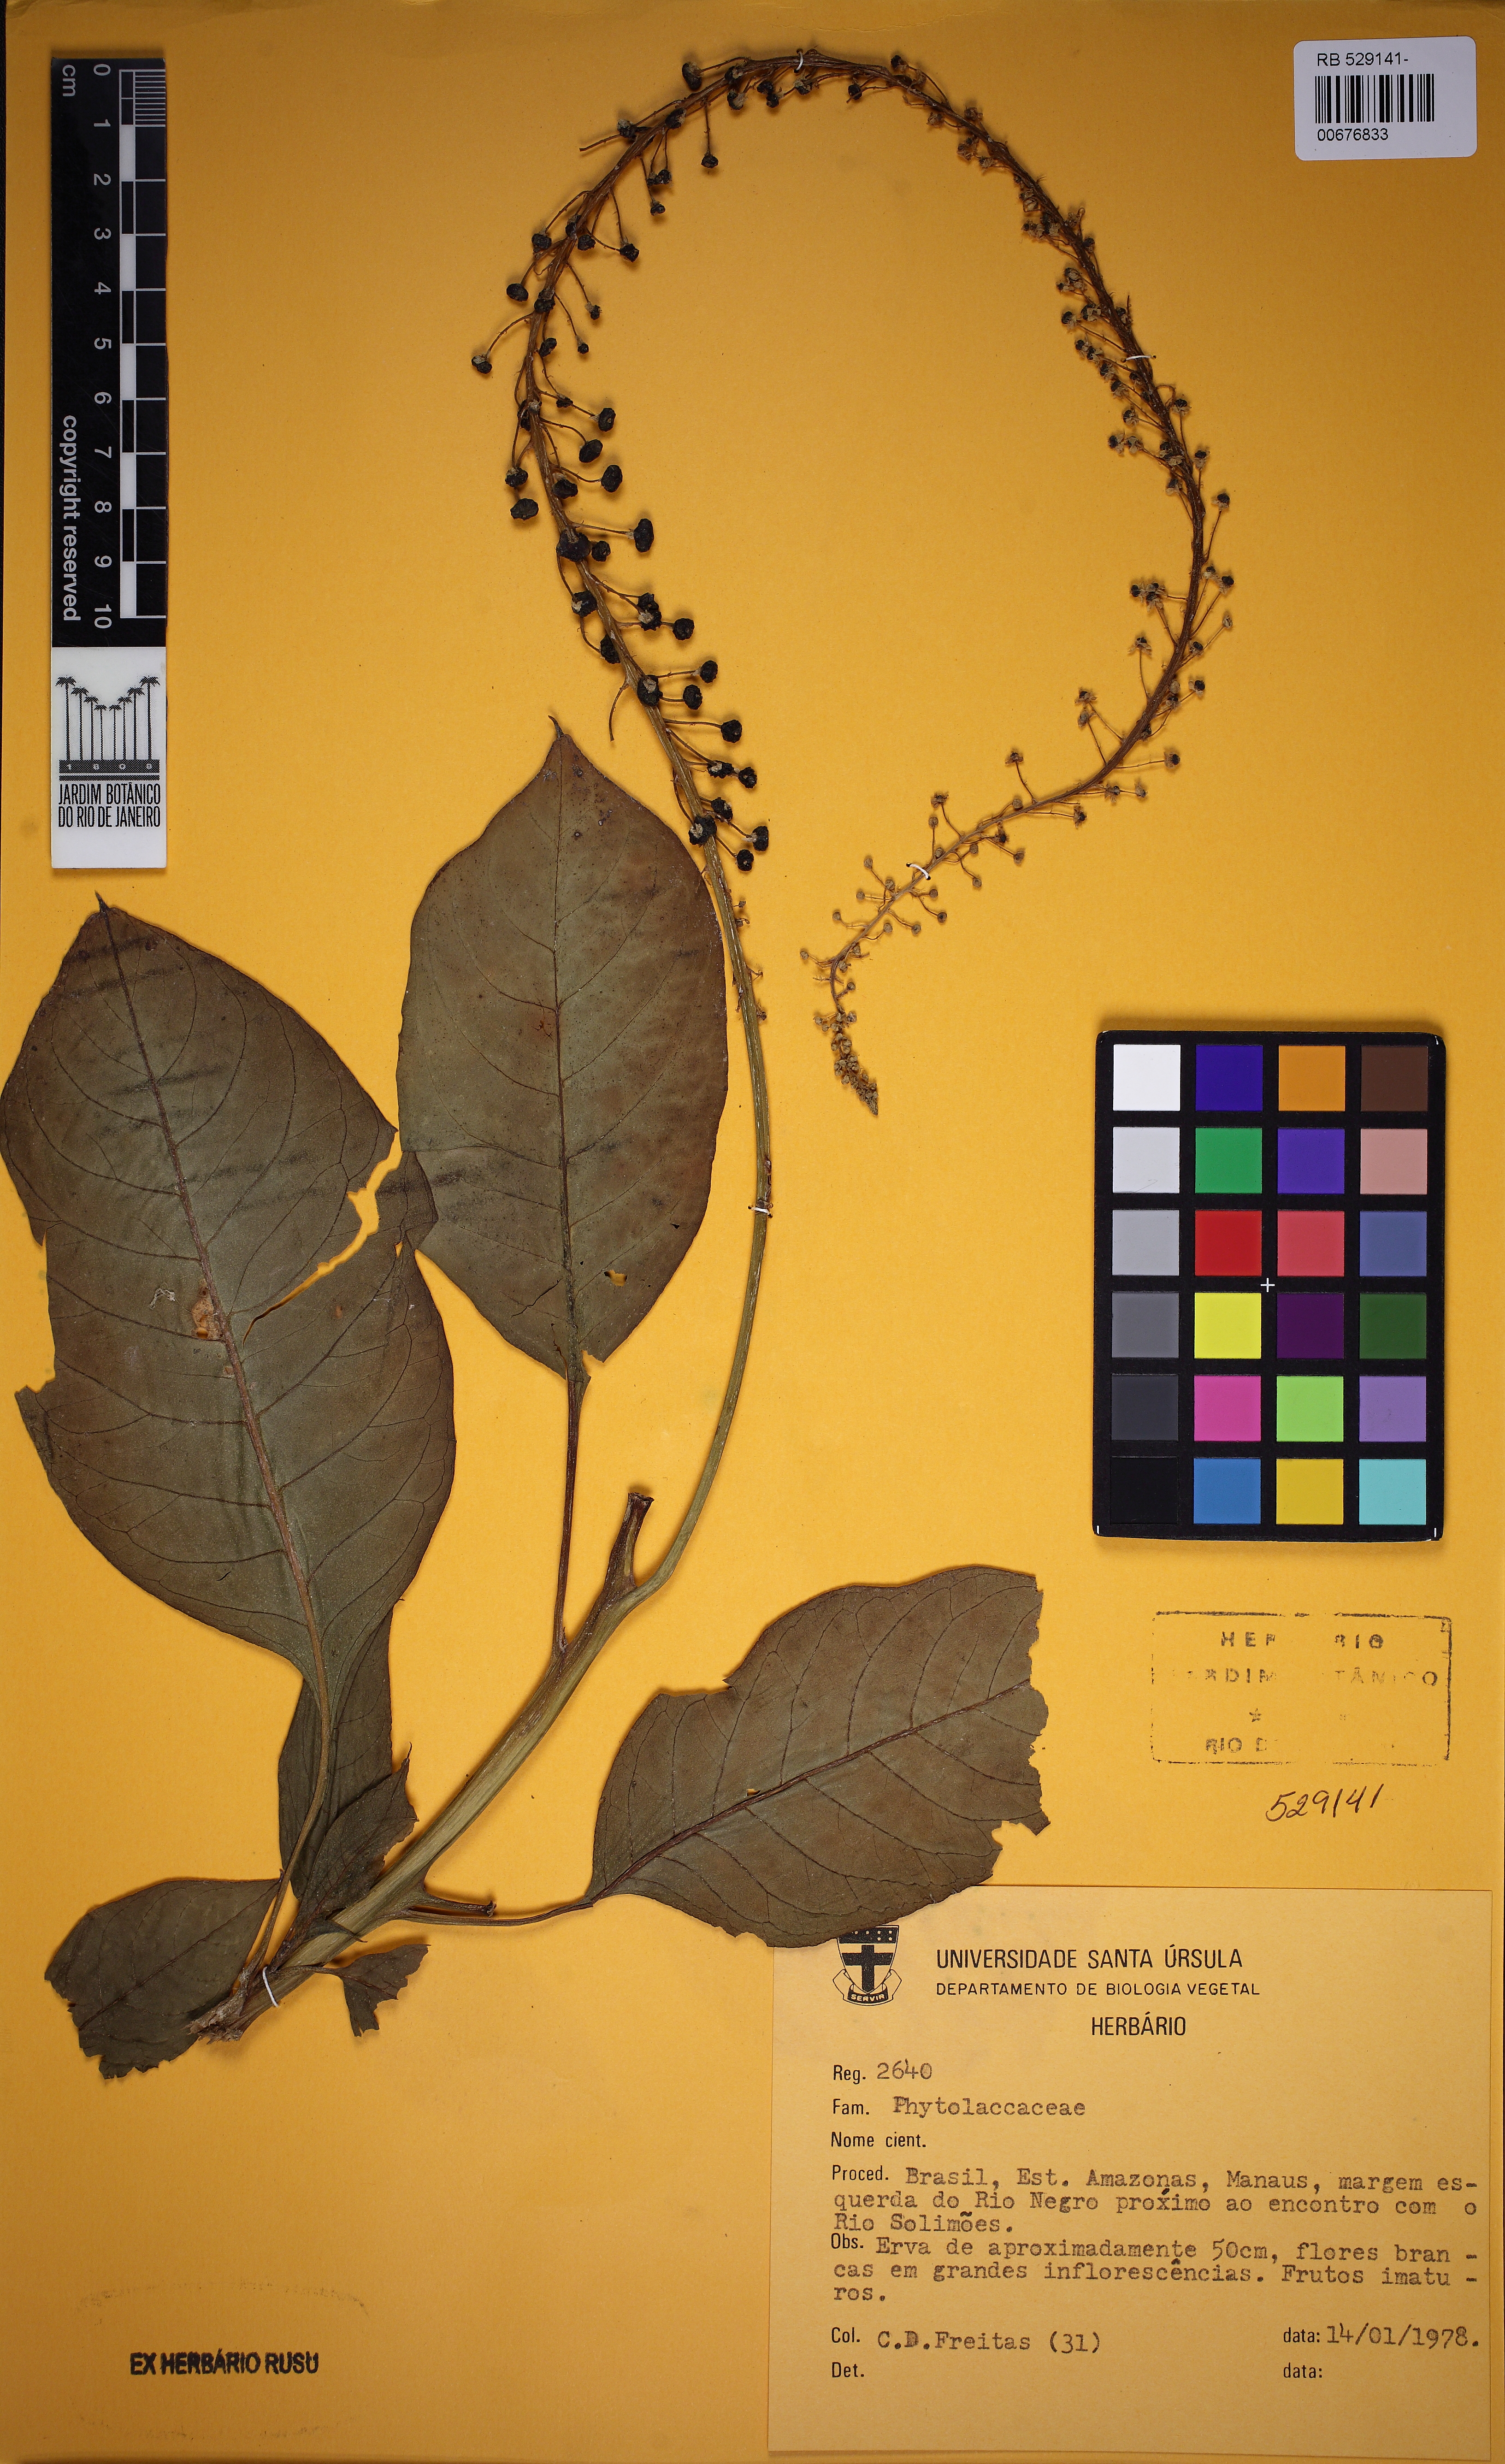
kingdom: Plantae
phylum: Tracheophyta
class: Magnoliopsida
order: Caryophyllales
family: Phytolaccaceae
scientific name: Phytolaccaceae
